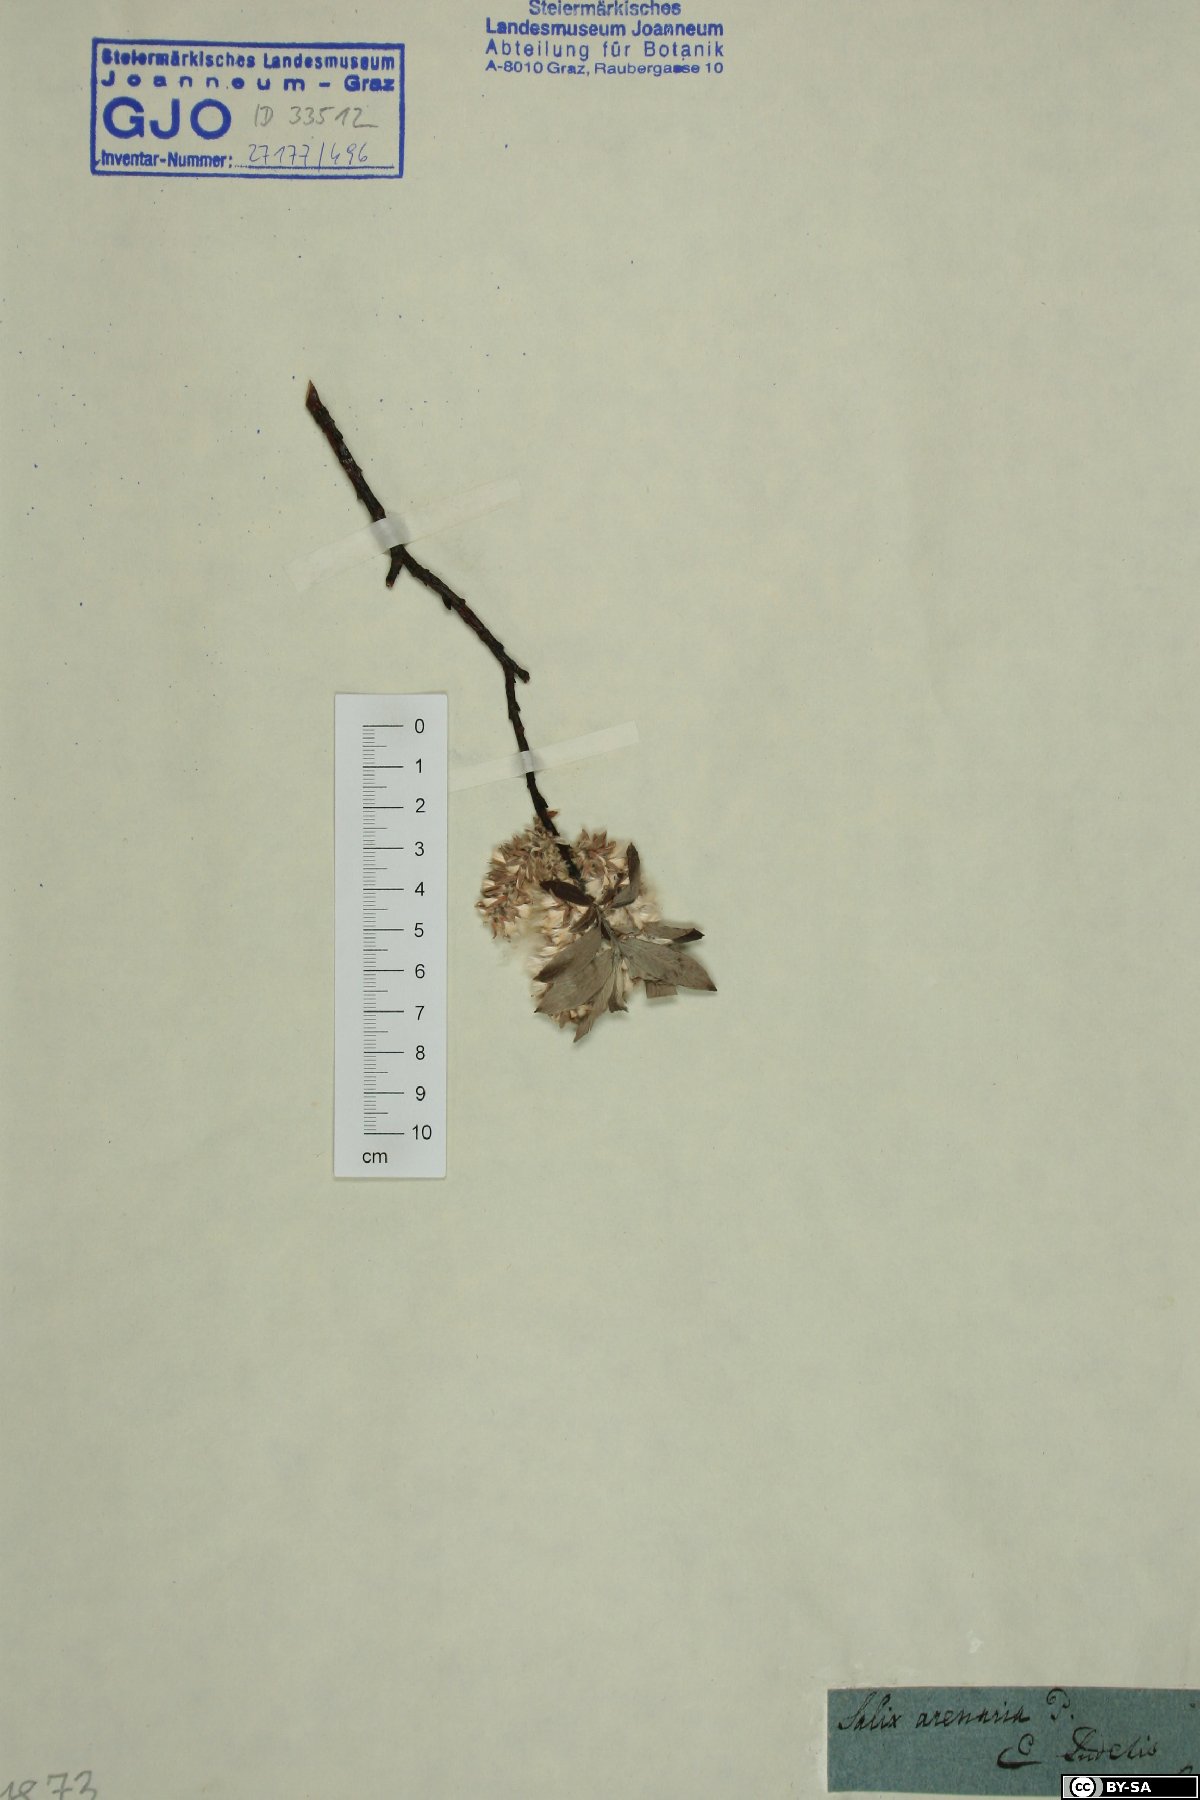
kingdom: Plantae
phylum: Tracheophyta
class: Magnoliopsida
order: Malpighiales
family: Salicaceae
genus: Salix
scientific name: Salix repens
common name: Creeping willow
